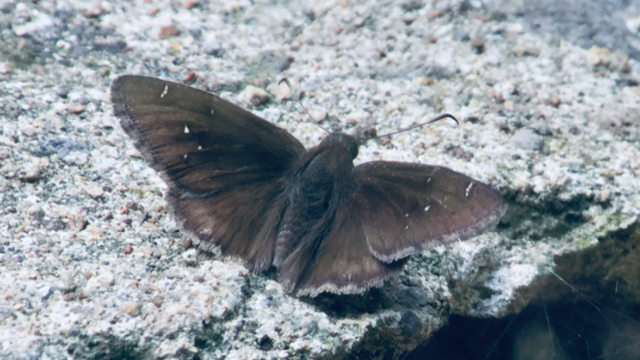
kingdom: Animalia
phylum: Arthropoda
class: Insecta
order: Lepidoptera
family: Hesperiidae
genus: Autochton
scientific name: Autochton
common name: Northern Cloudywing
